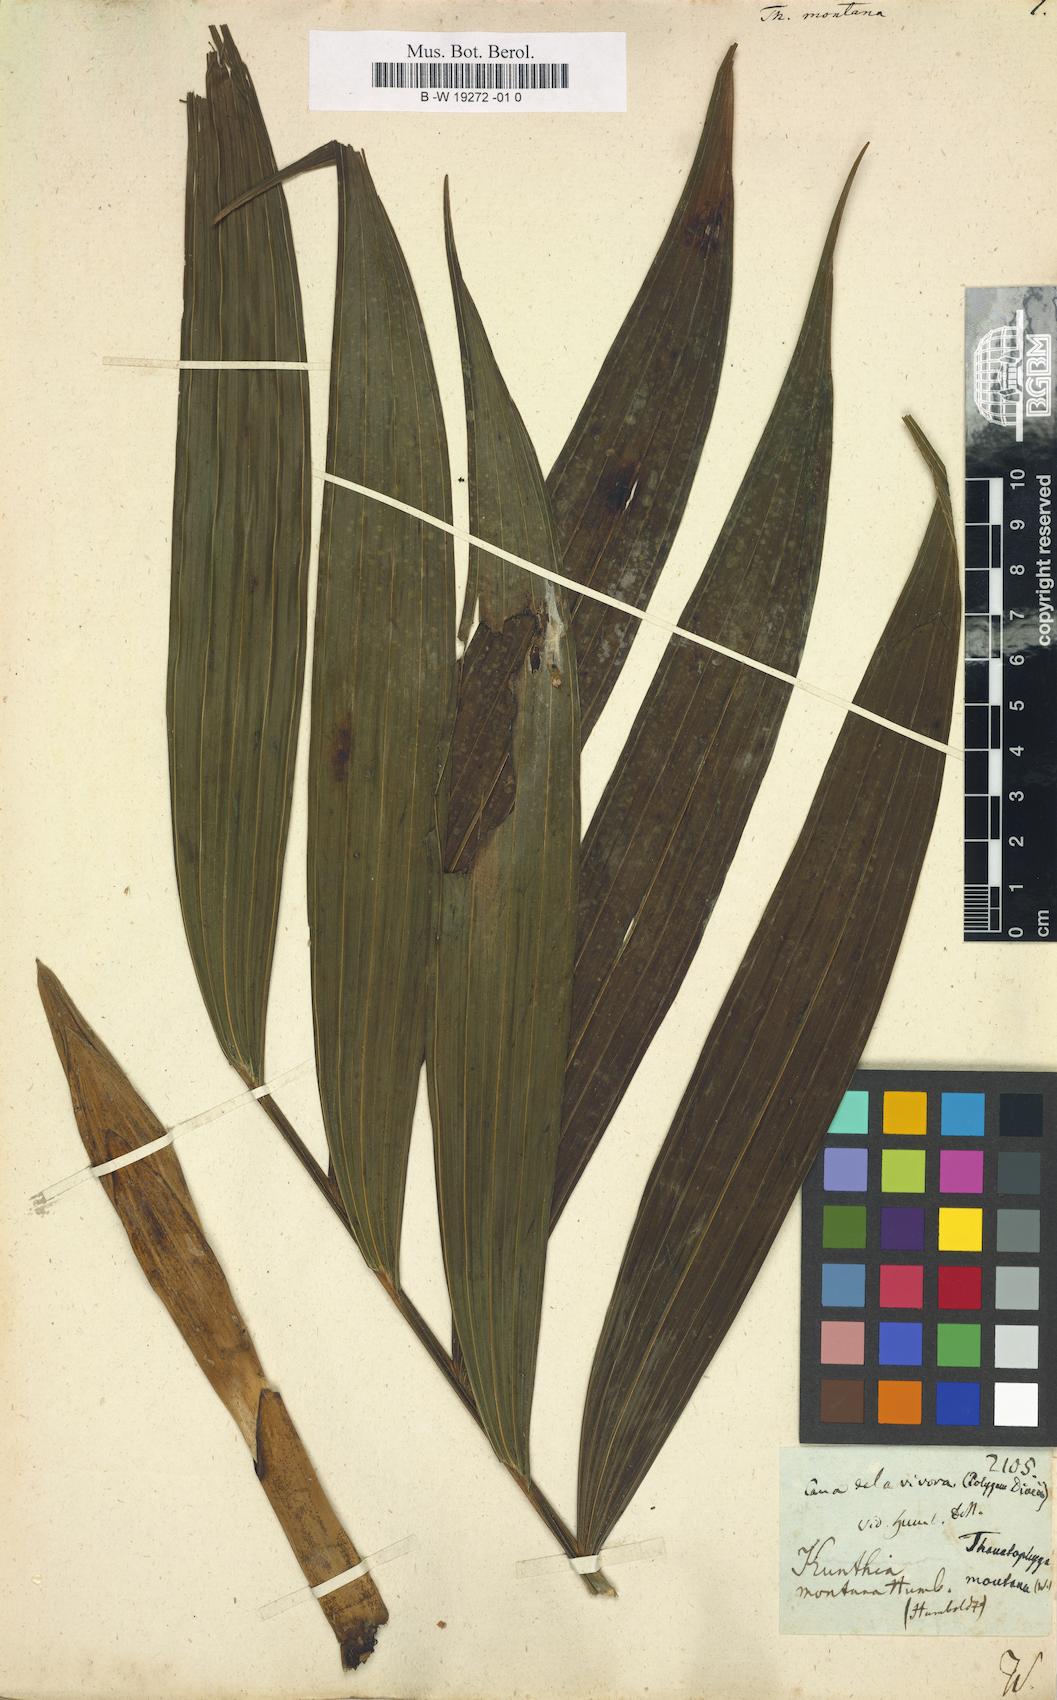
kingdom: Plantae
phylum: Tracheophyta
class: Liliopsida
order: Arecales
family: Arecaceae
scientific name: Arecaceae
